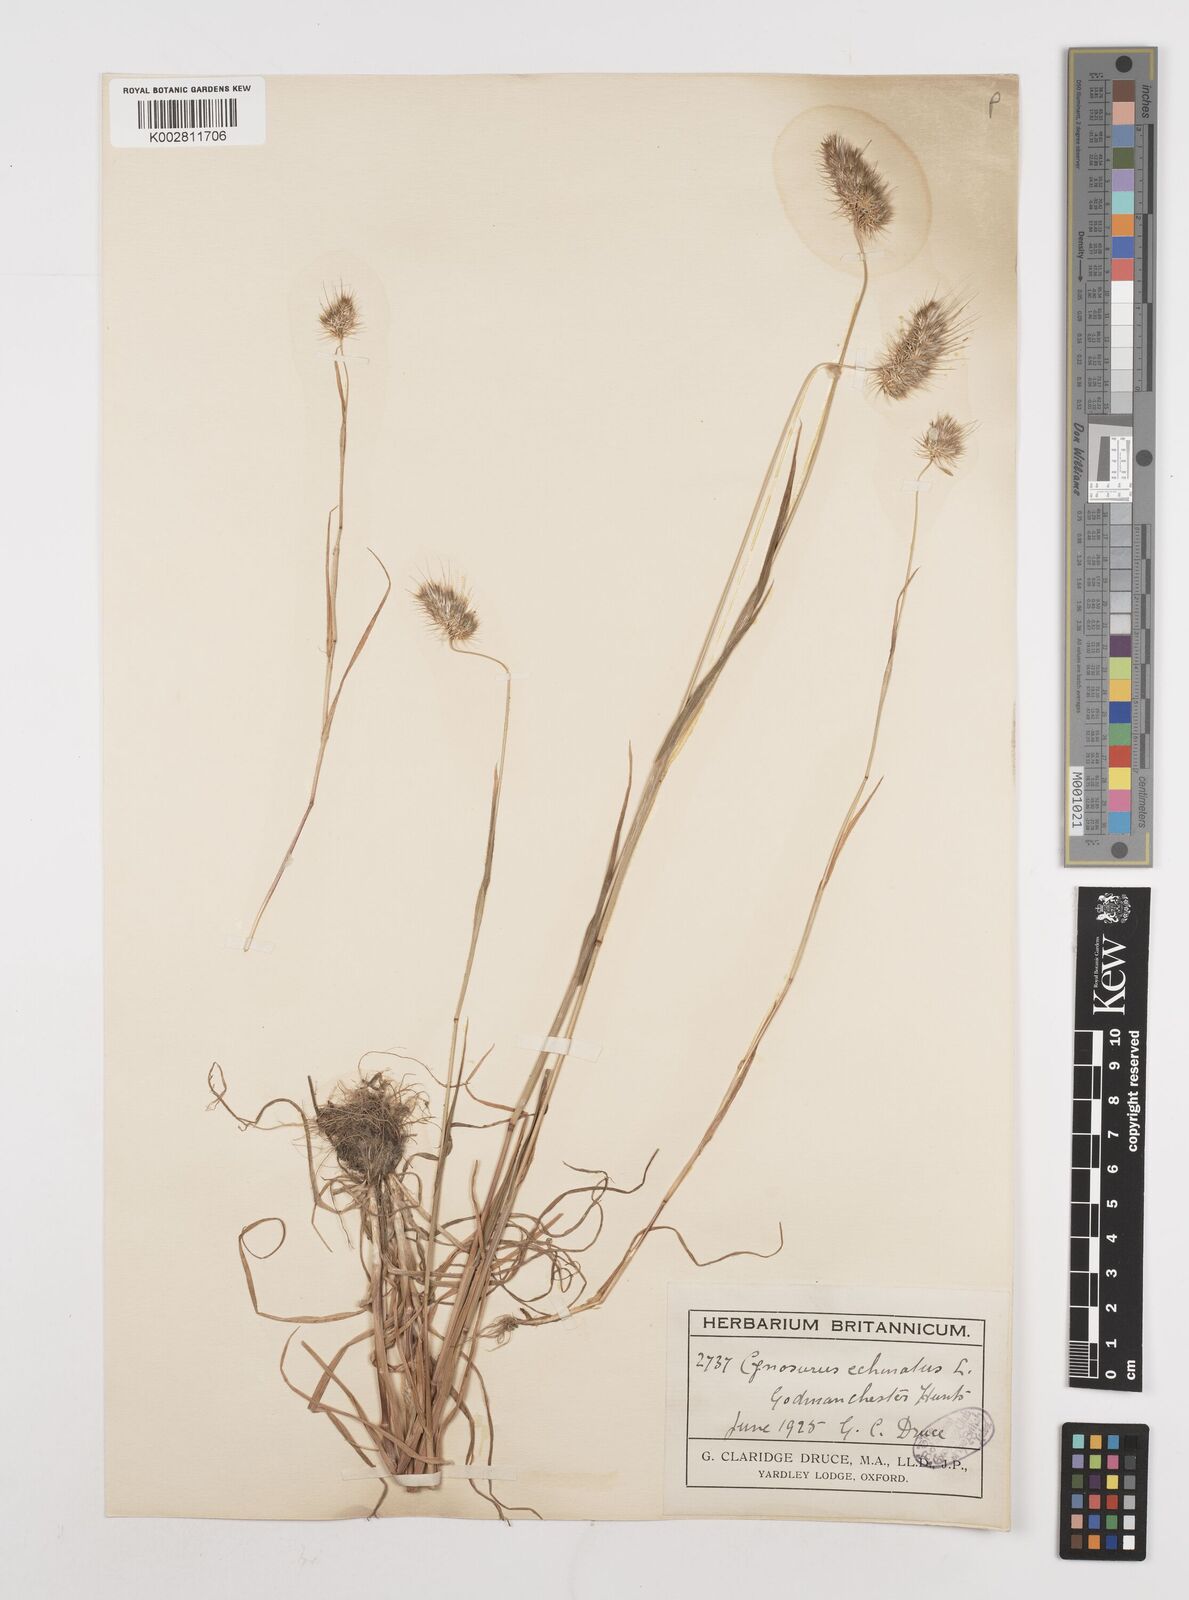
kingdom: Plantae
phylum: Tracheophyta
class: Liliopsida
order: Poales
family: Poaceae
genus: Cynosurus
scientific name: Cynosurus echinatus
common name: Rough dog's-tail
